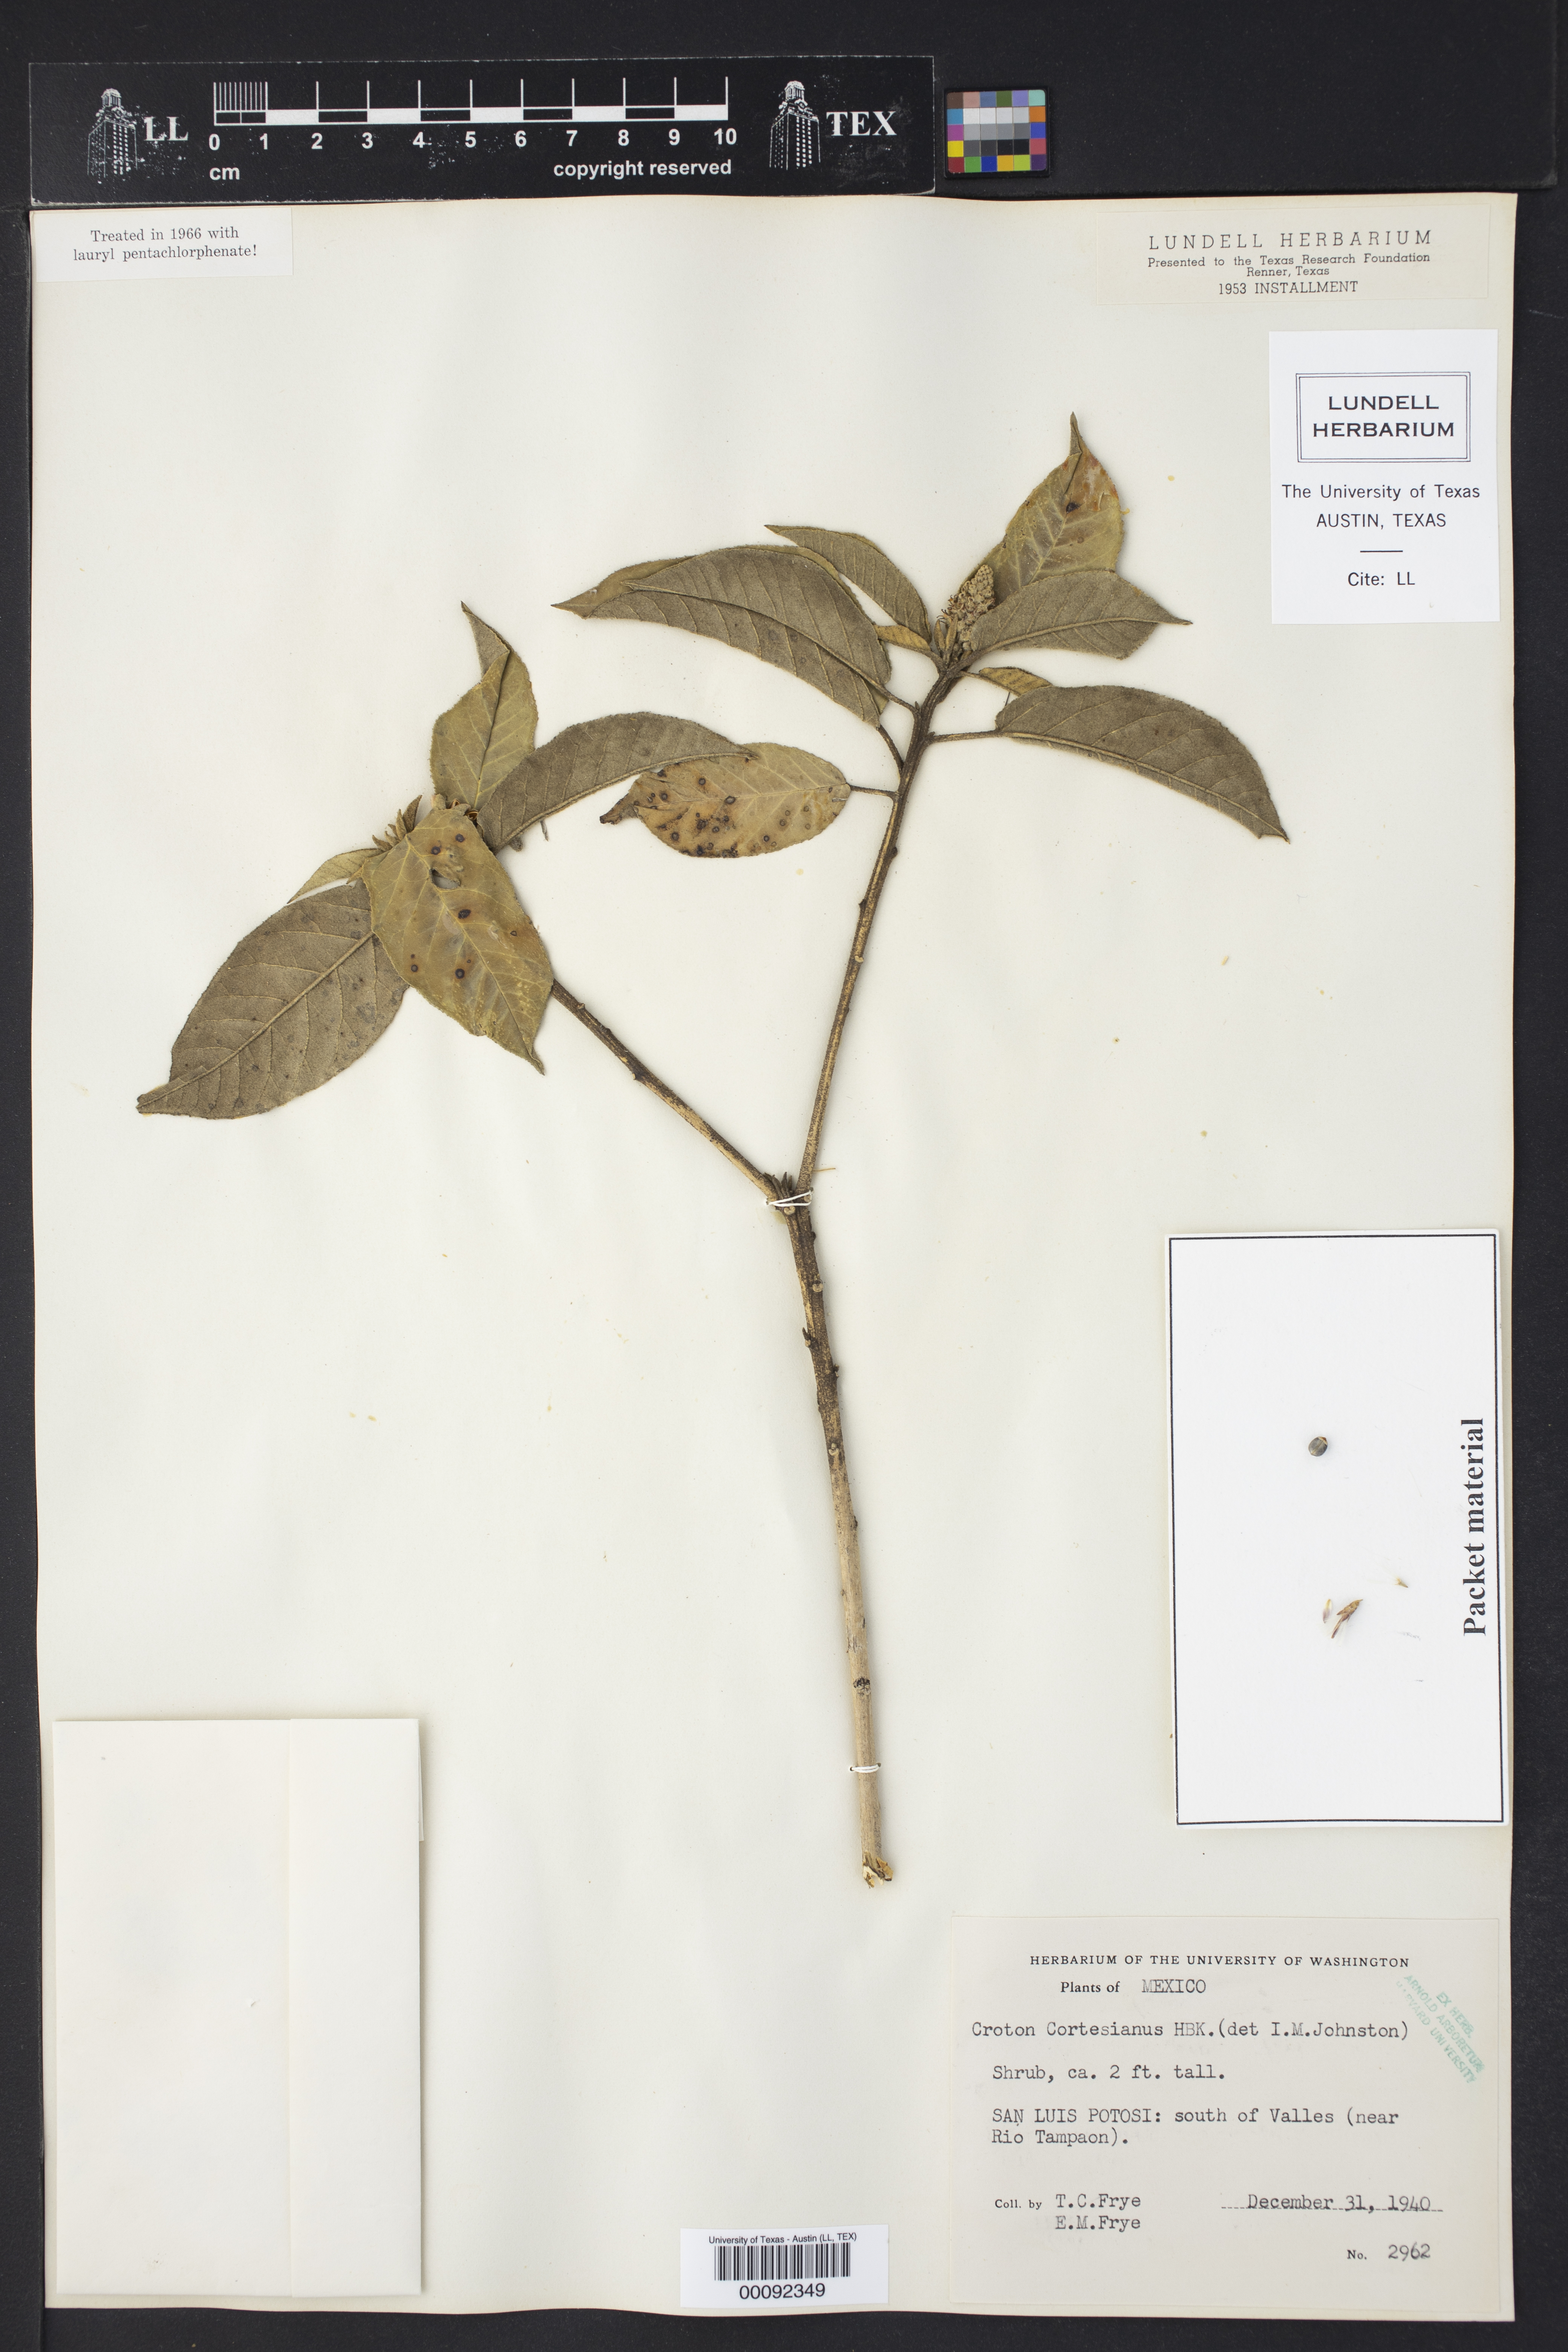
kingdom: Plantae
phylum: Tracheophyta
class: Magnoliopsida
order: Malpighiales
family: Euphorbiaceae
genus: Croton
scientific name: Croton cortesianus
